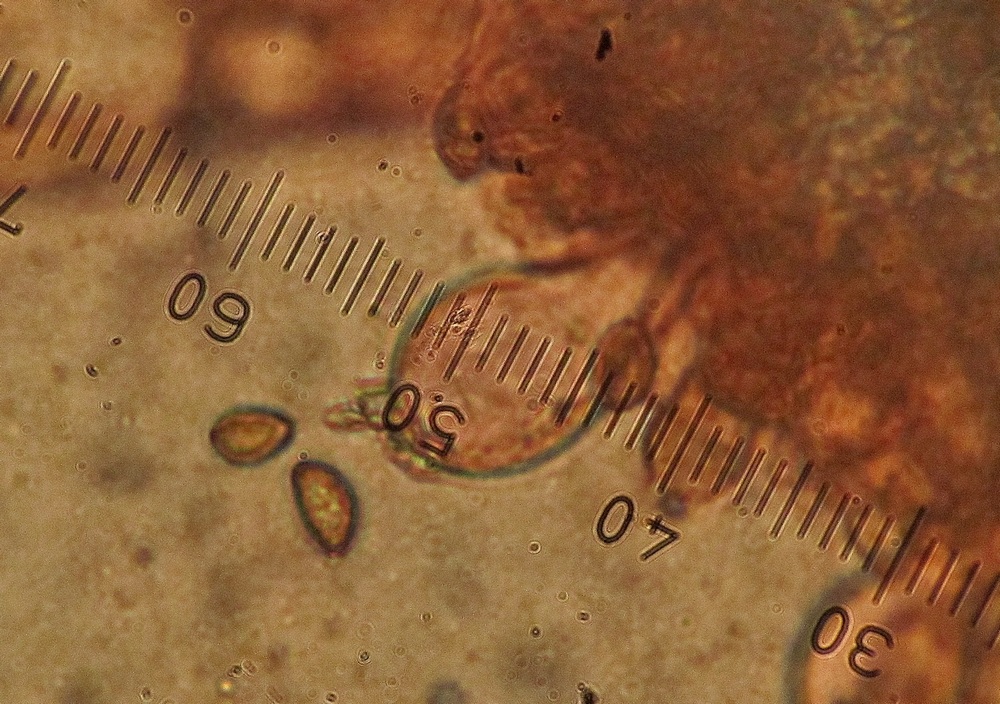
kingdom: Fungi
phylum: Basidiomycota
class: Agaricomycetes
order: Agaricales
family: Inocybaceae
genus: Inocybe
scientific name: Inocybe appendiculata
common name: tandet trævlhat
